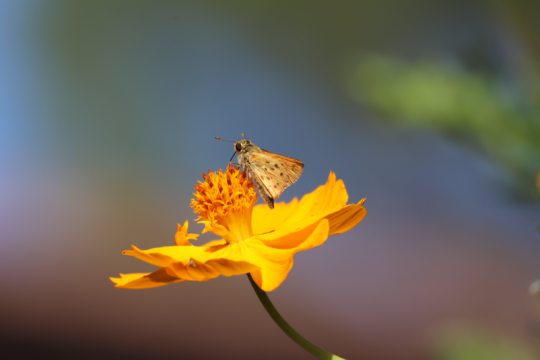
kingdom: Animalia
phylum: Arthropoda
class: Insecta
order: Lepidoptera
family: Hesperiidae
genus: Hylephila
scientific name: Hylephila phyleus
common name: Fiery Skipper
